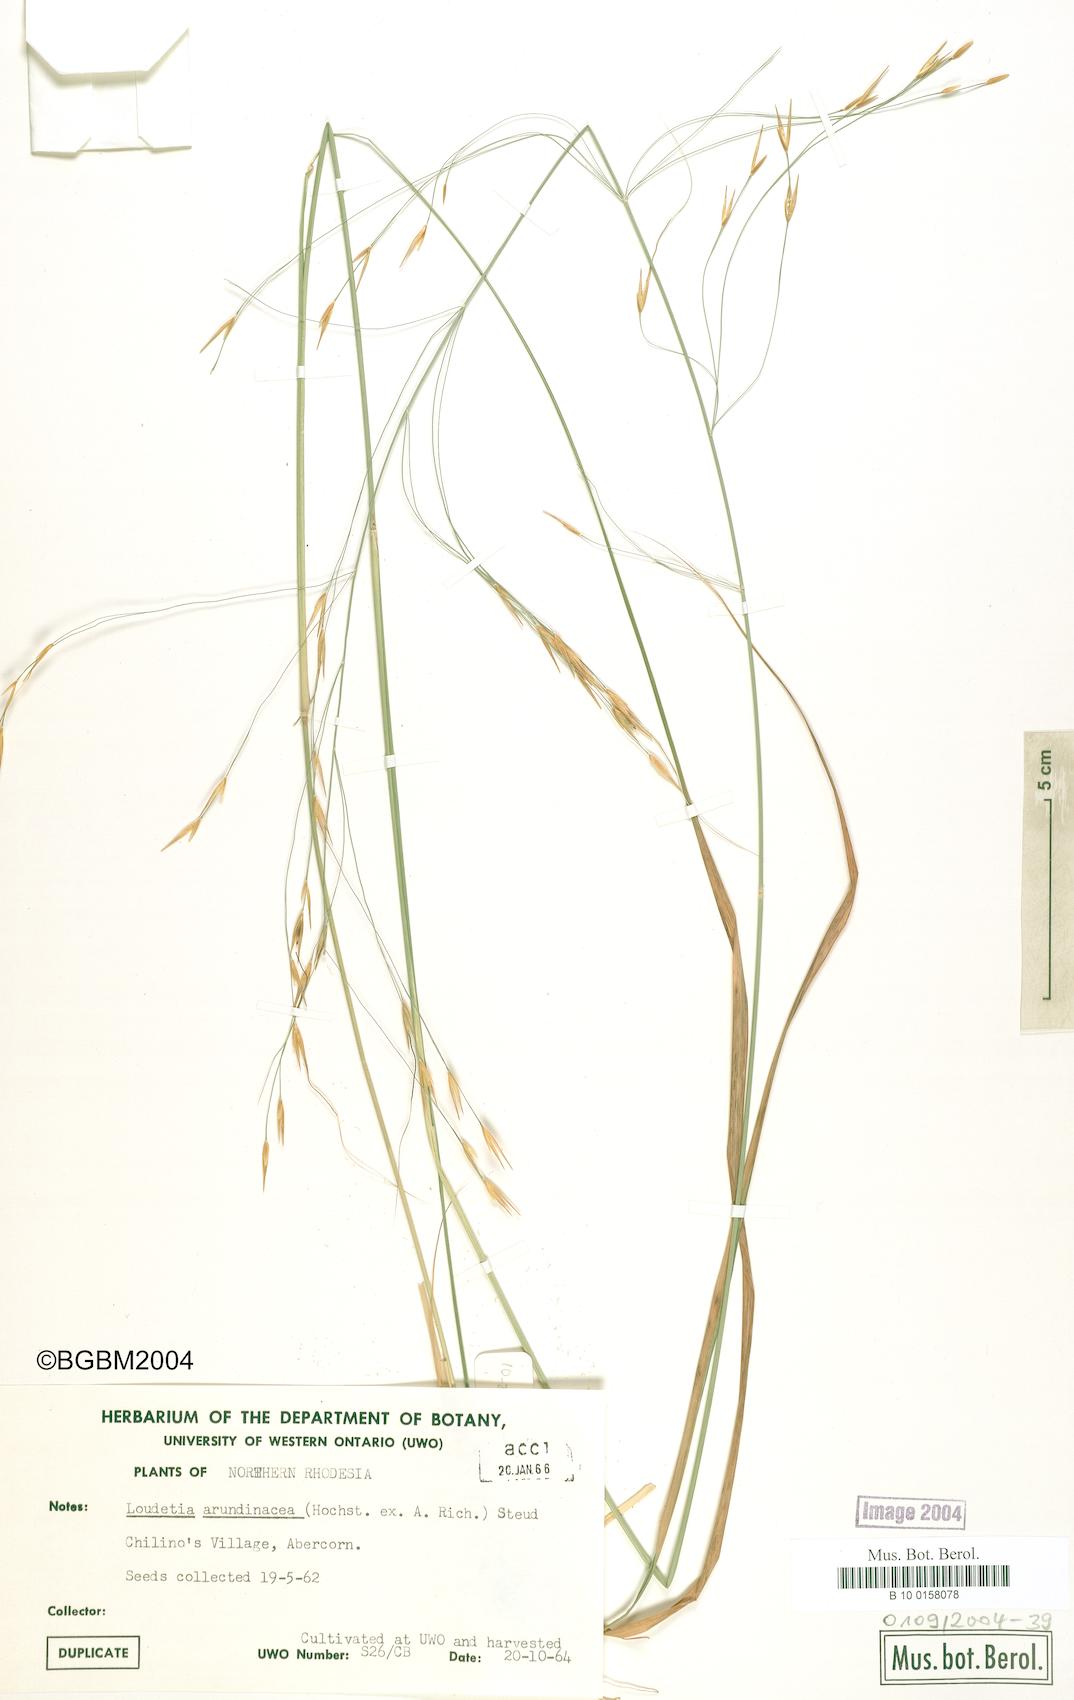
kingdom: Plantae
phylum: Tracheophyta
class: Liliopsida
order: Poales
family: Poaceae
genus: Loudetia
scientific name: Loudetia arundinacea
